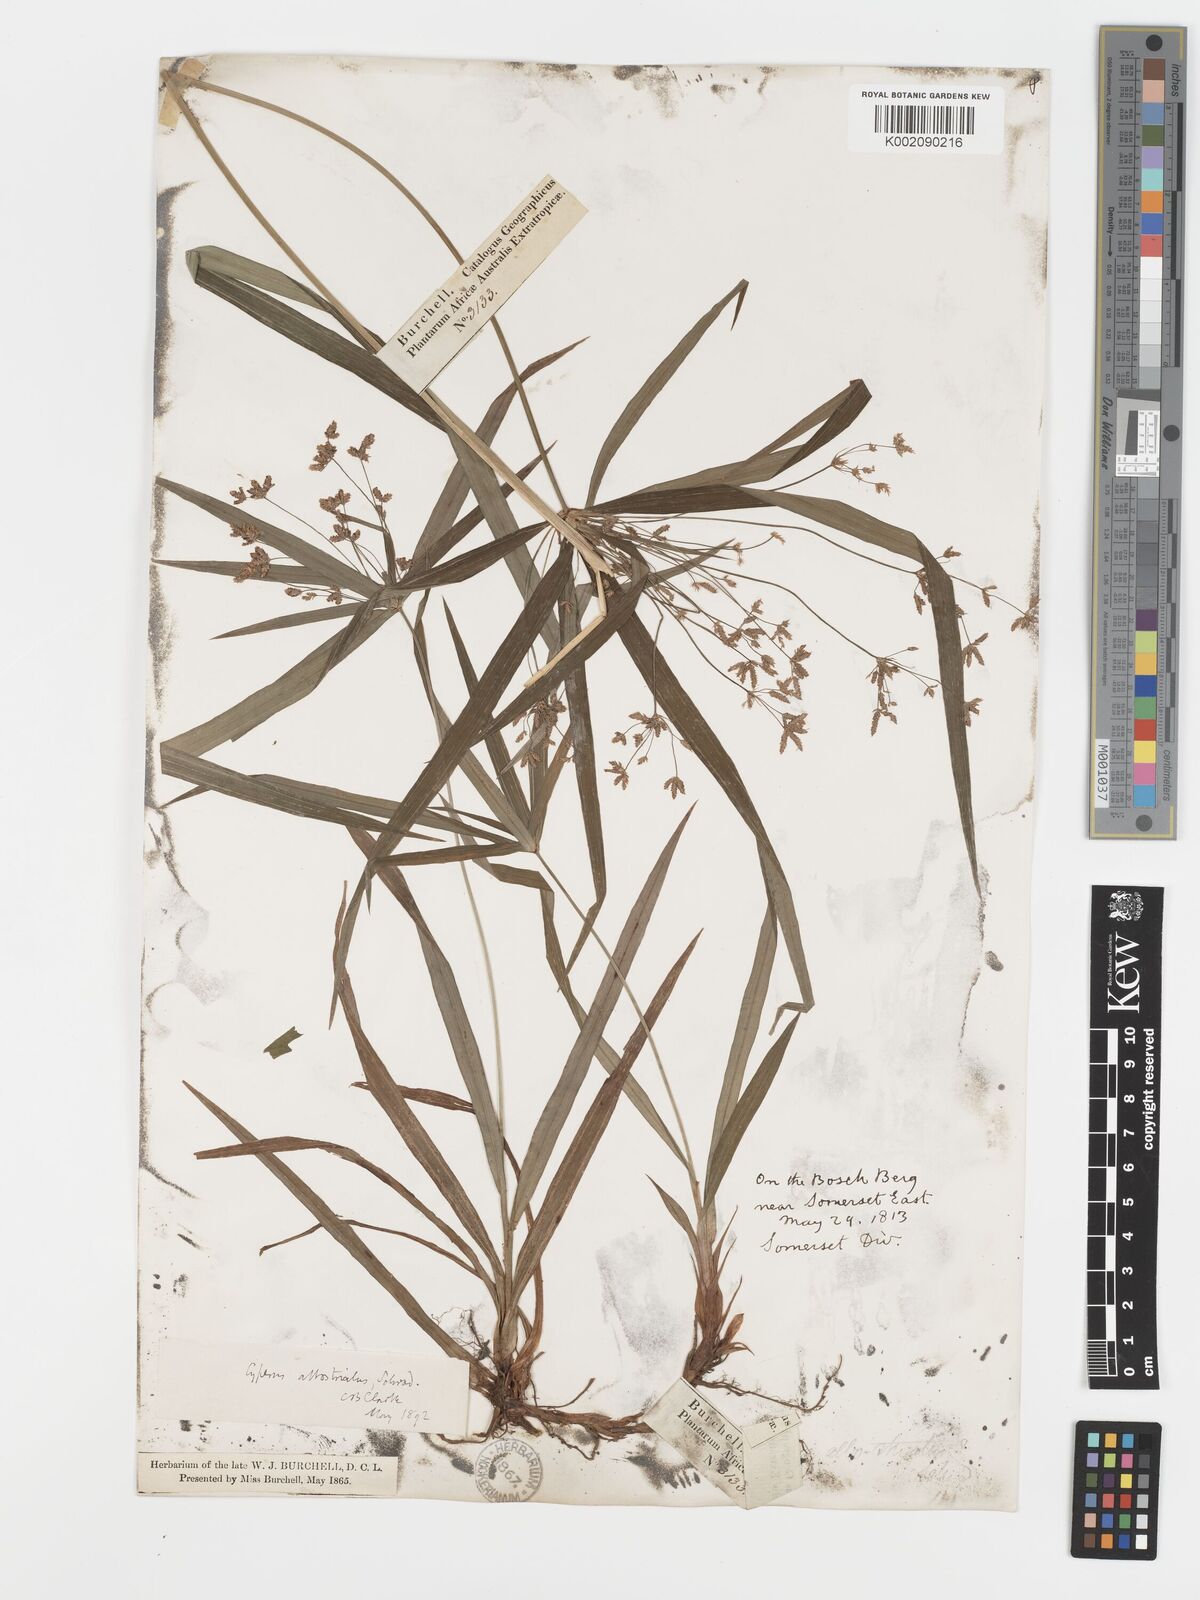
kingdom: Plantae
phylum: Tracheophyta
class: Liliopsida
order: Poales
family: Cyperaceae
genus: Cyperus
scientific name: Cyperus albostriatus
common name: Dwarf umbrella-grass
